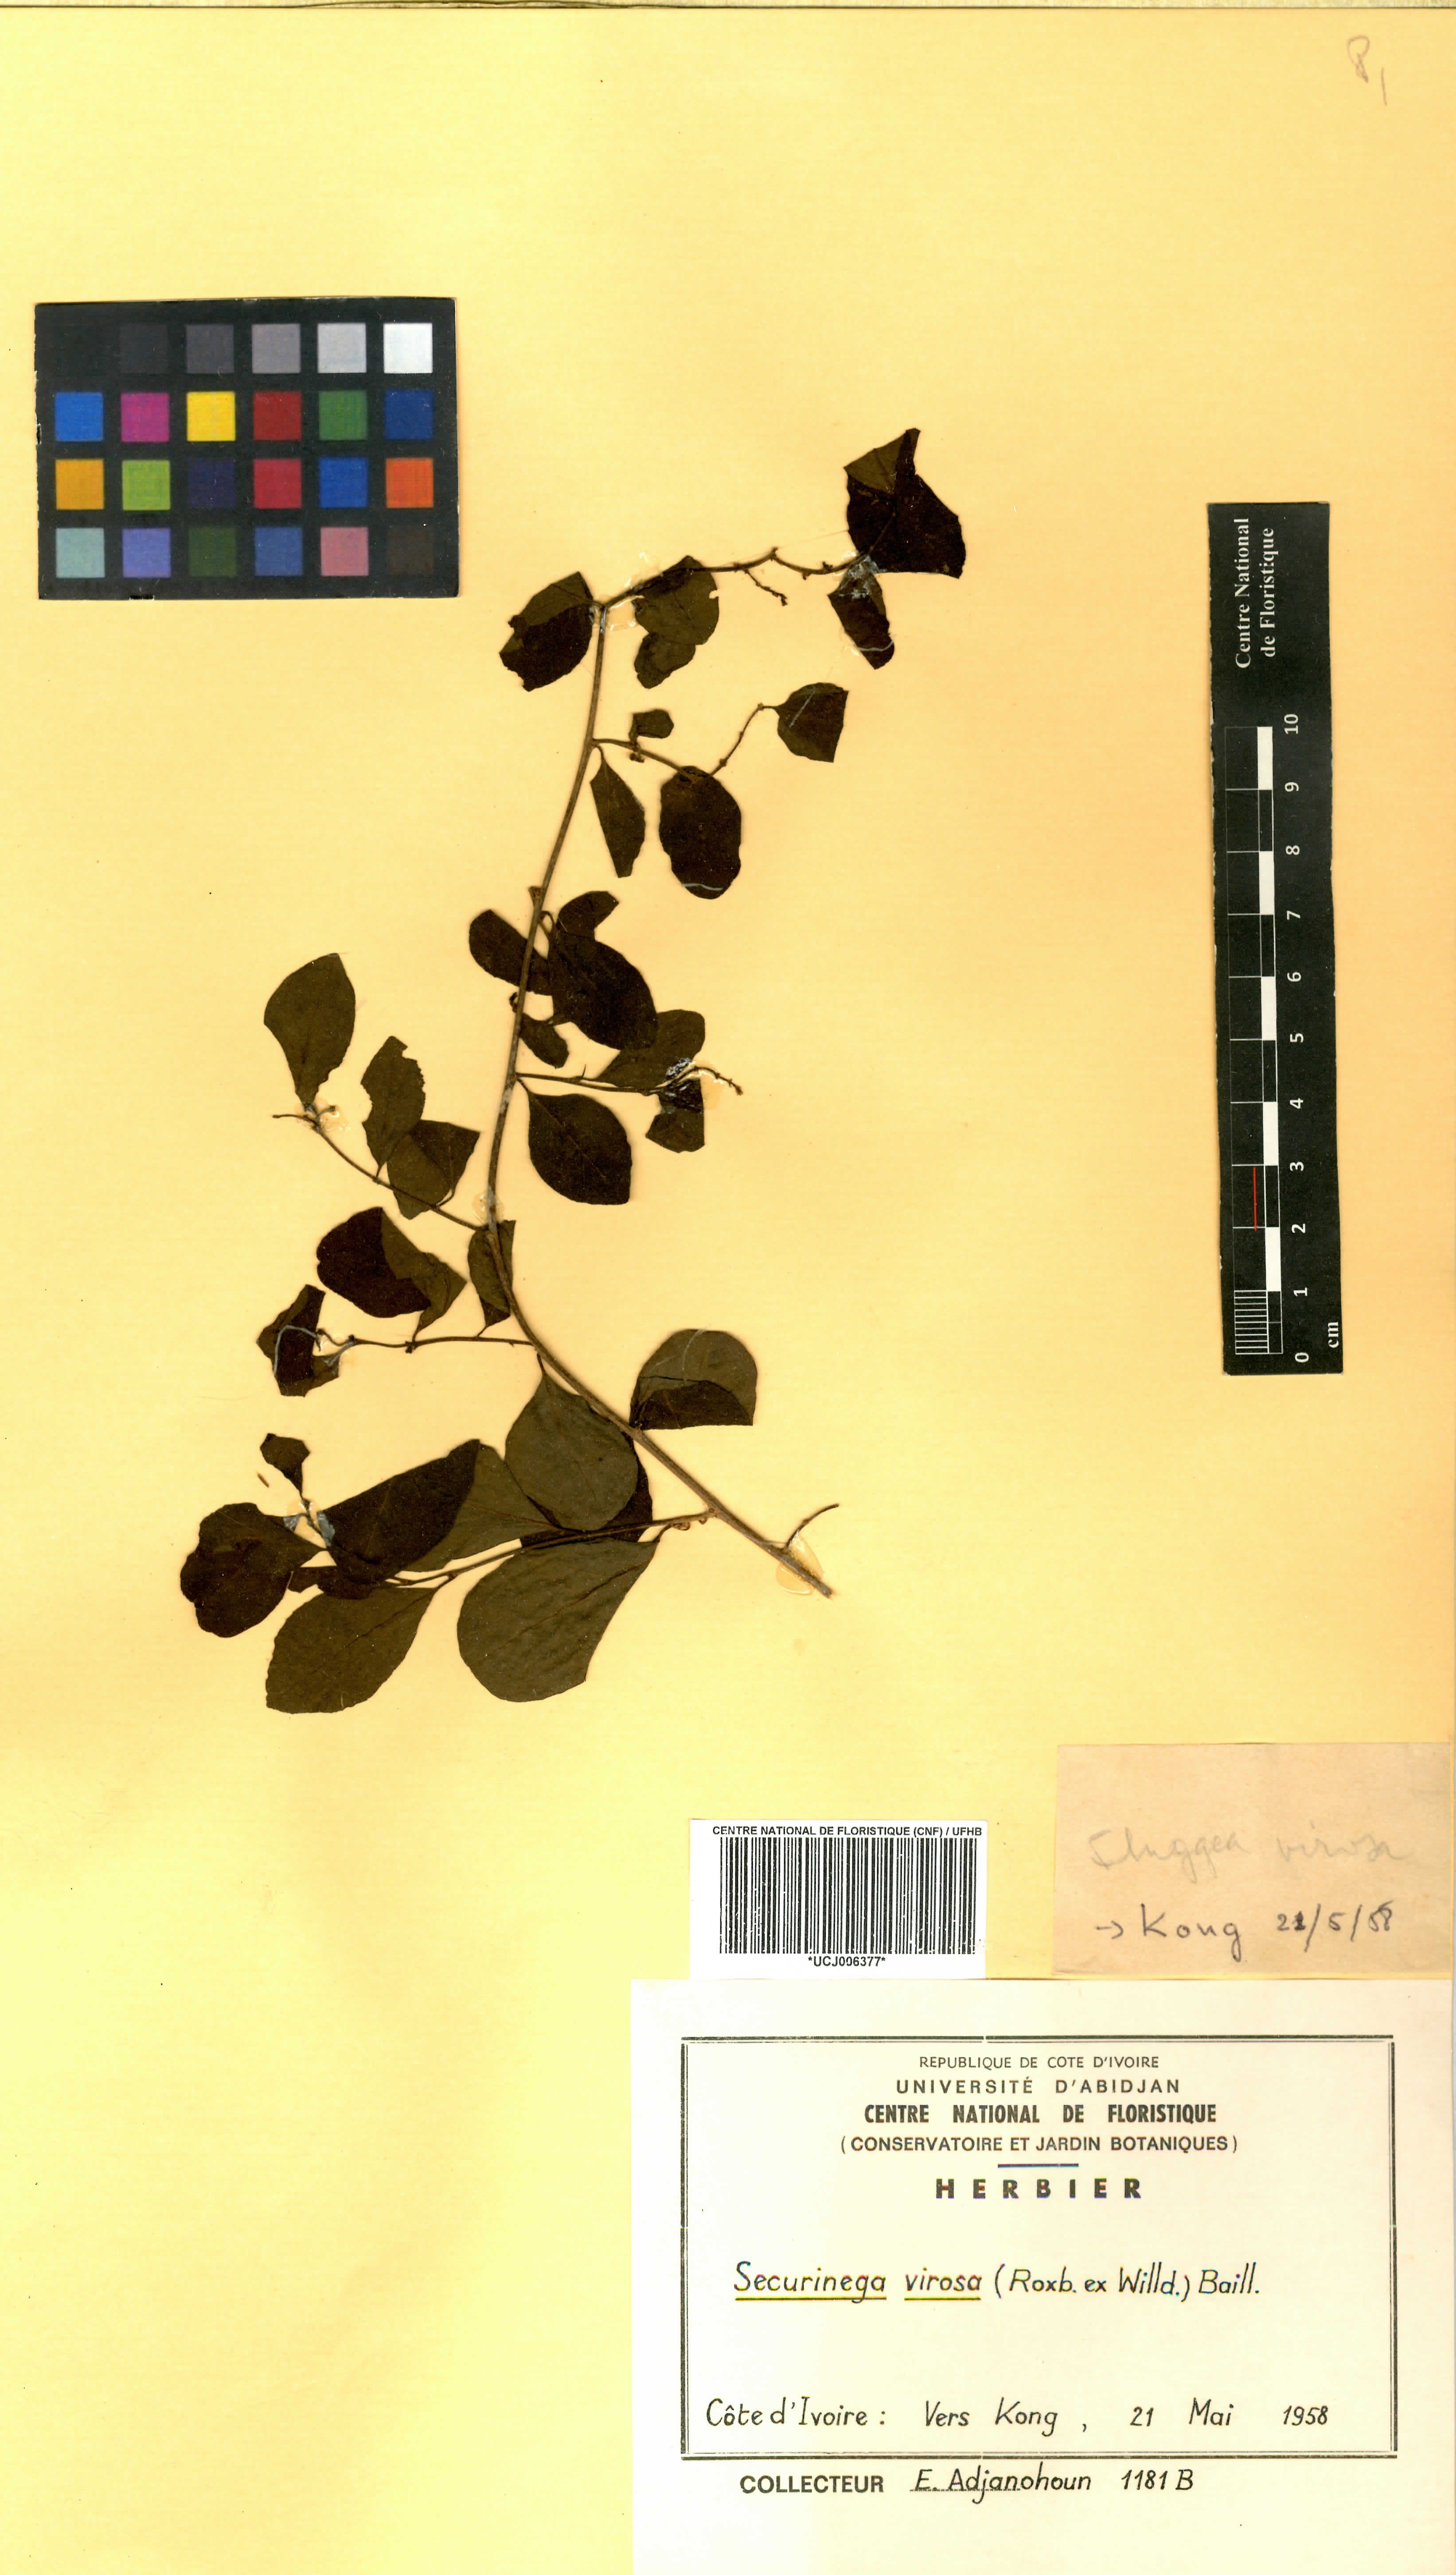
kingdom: Plantae
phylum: Tracheophyta
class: Magnoliopsida
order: Malpighiales
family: Phyllanthaceae
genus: Flueggea
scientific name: Flueggea virosa
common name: Common bushweed
